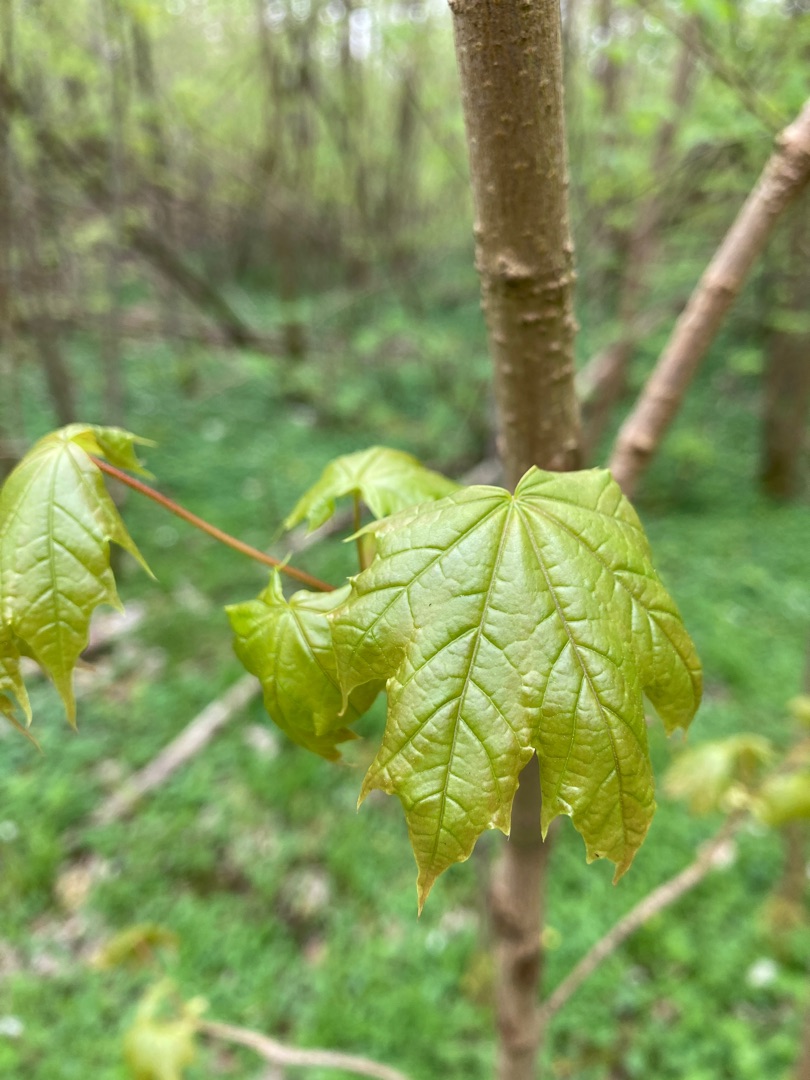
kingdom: Plantae
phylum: Tracheophyta
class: Magnoliopsida
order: Sapindales
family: Sapindaceae
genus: Acer
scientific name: Acer platanoides
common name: Spids-løn
